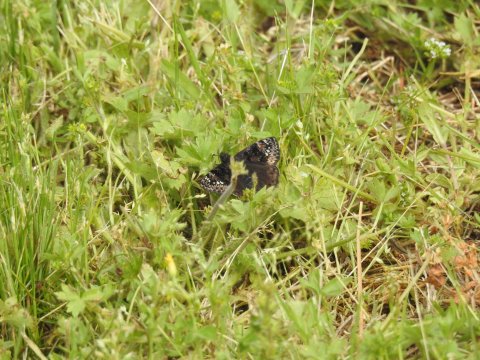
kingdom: Animalia
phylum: Arthropoda
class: Insecta
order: Lepidoptera
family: Hesperiidae
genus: Gesta
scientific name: Gesta
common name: Wild Indigo Duskywing
